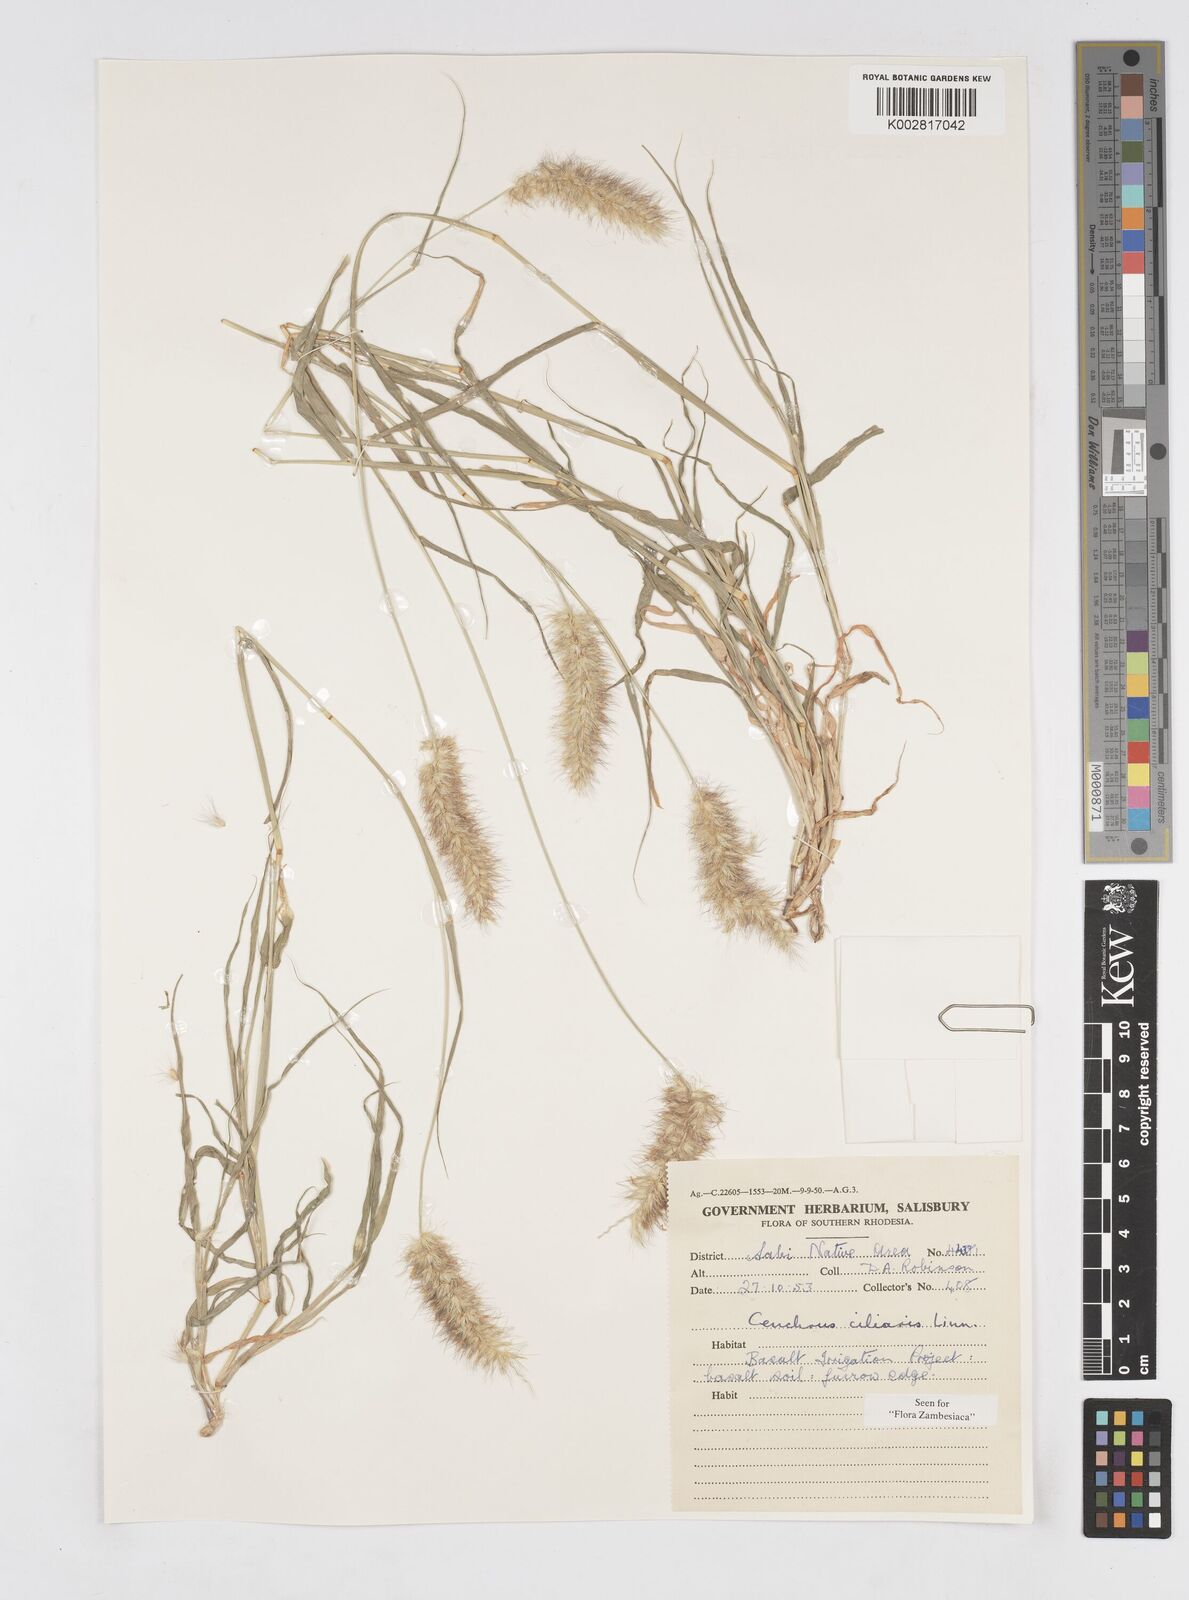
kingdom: Plantae
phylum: Tracheophyta
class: Liliopsida
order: Poales
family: Poaceae
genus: Cenchrus
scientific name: Cenchrus ciliaris
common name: Buffelgrass
